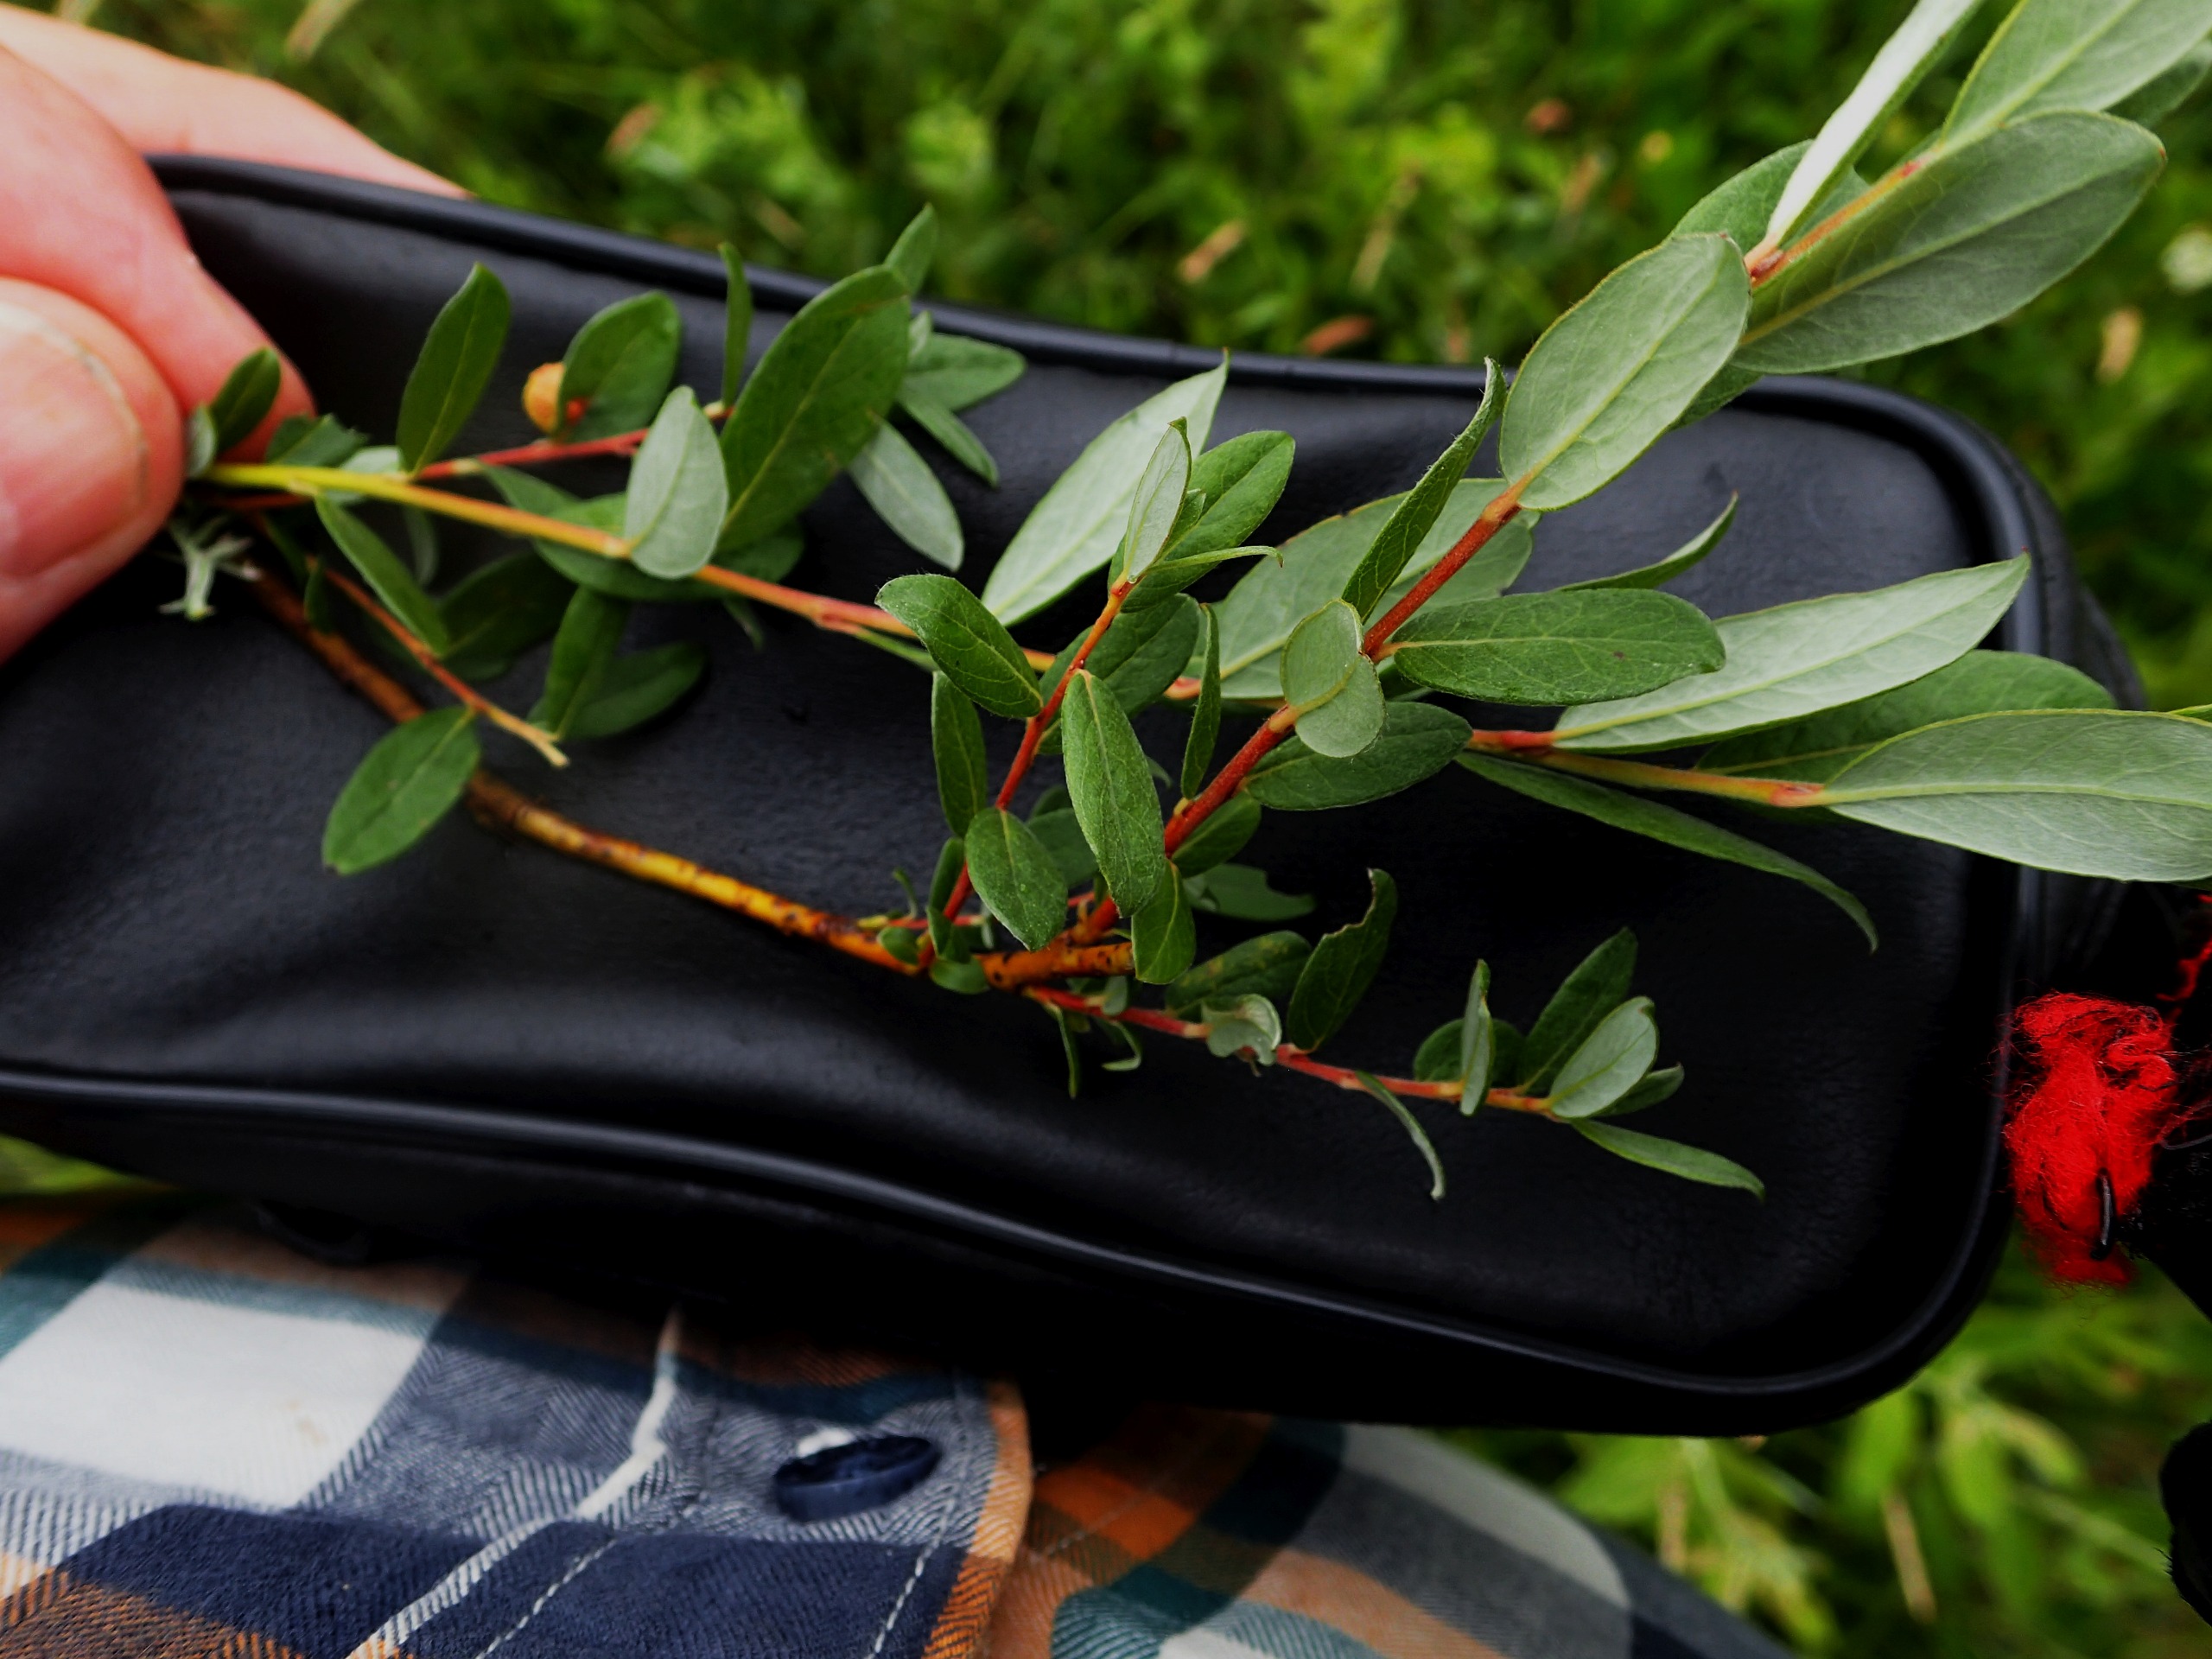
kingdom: Plantae
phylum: Tracheophyta
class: Magnoliopsida
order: Malpighiales
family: Salicaceae
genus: Salix
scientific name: Salix repens
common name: Krybende pil
